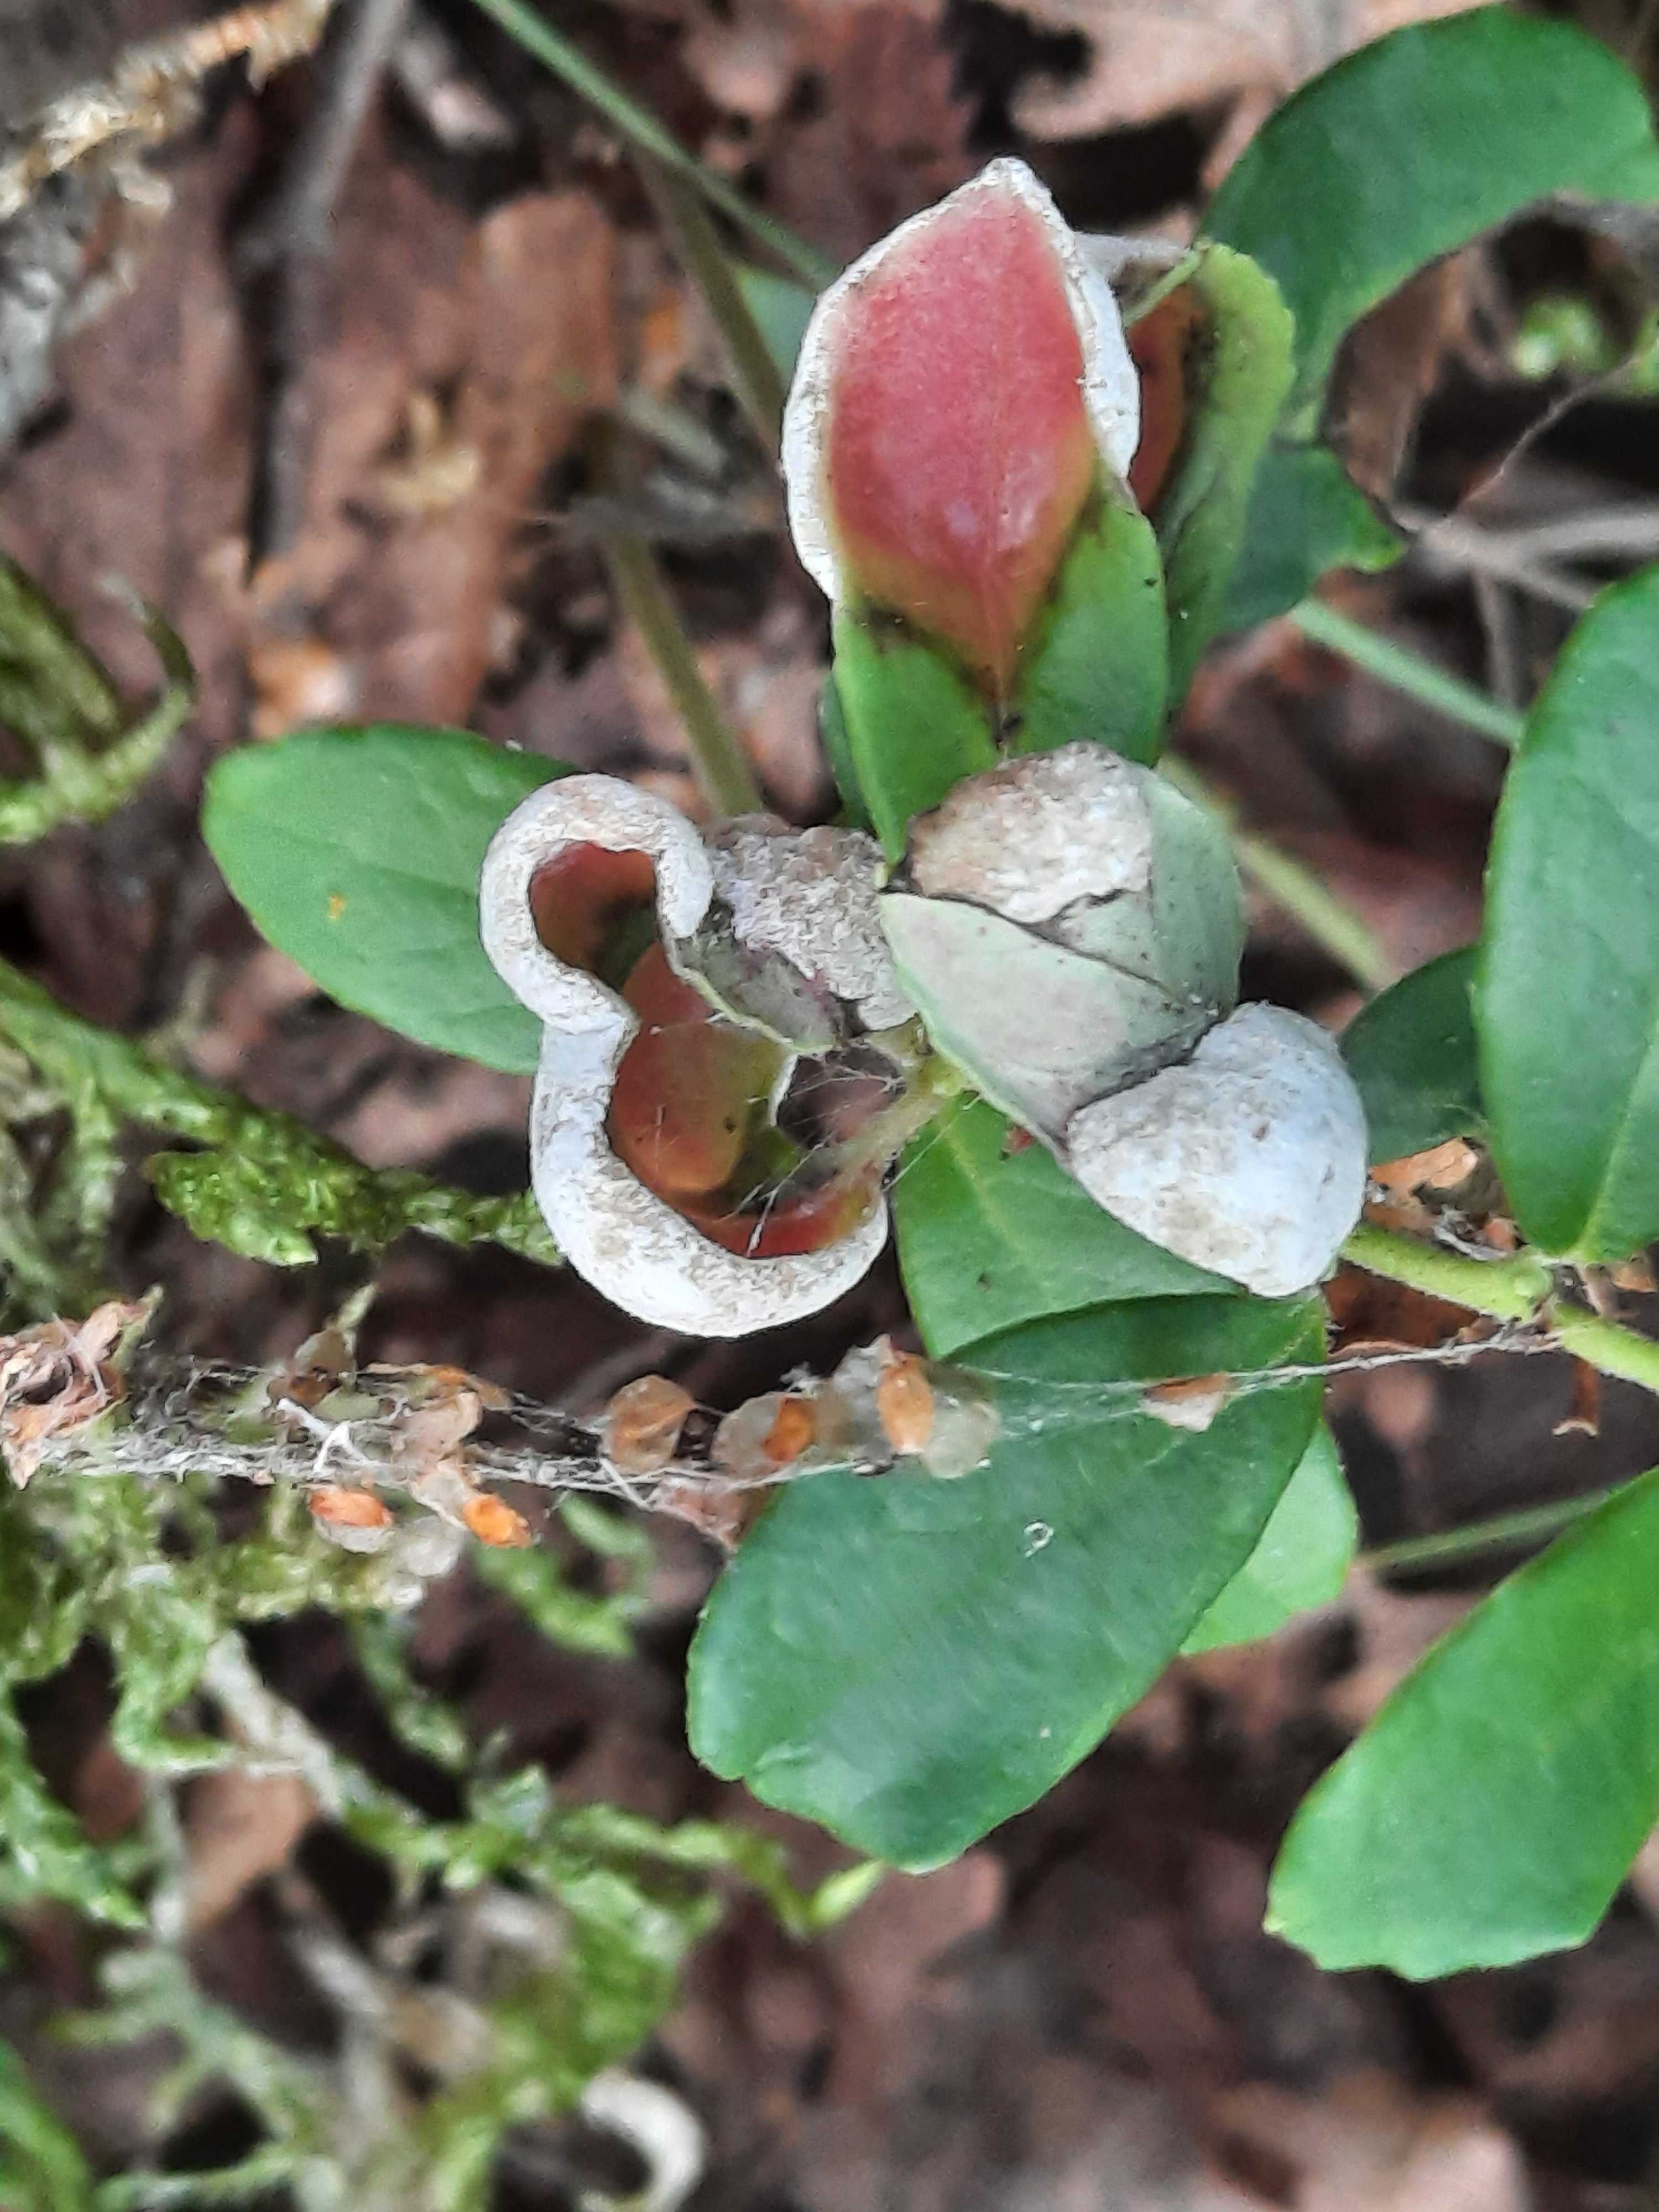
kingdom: Fungi
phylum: Basidiomycota
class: Exobasidiomycetes
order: Exobasidiales
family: Exobasidiaceae
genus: Exobasidium
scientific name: Exobasidium vaccinii
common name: tyttebærblad-bøllesvamp
